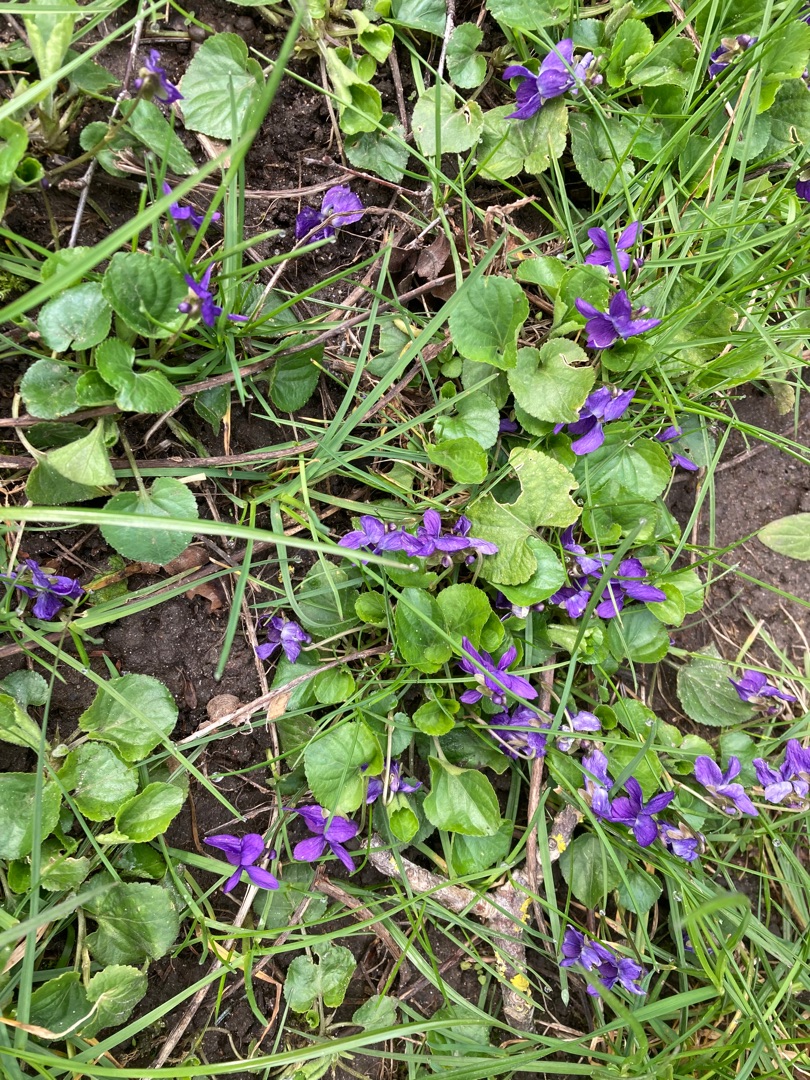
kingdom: Plantae
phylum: Tracheophyta
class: Magnoliopsida
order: Malpighiales
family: Violaceae
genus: Viola
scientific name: Viola odorata
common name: Marts-viol
